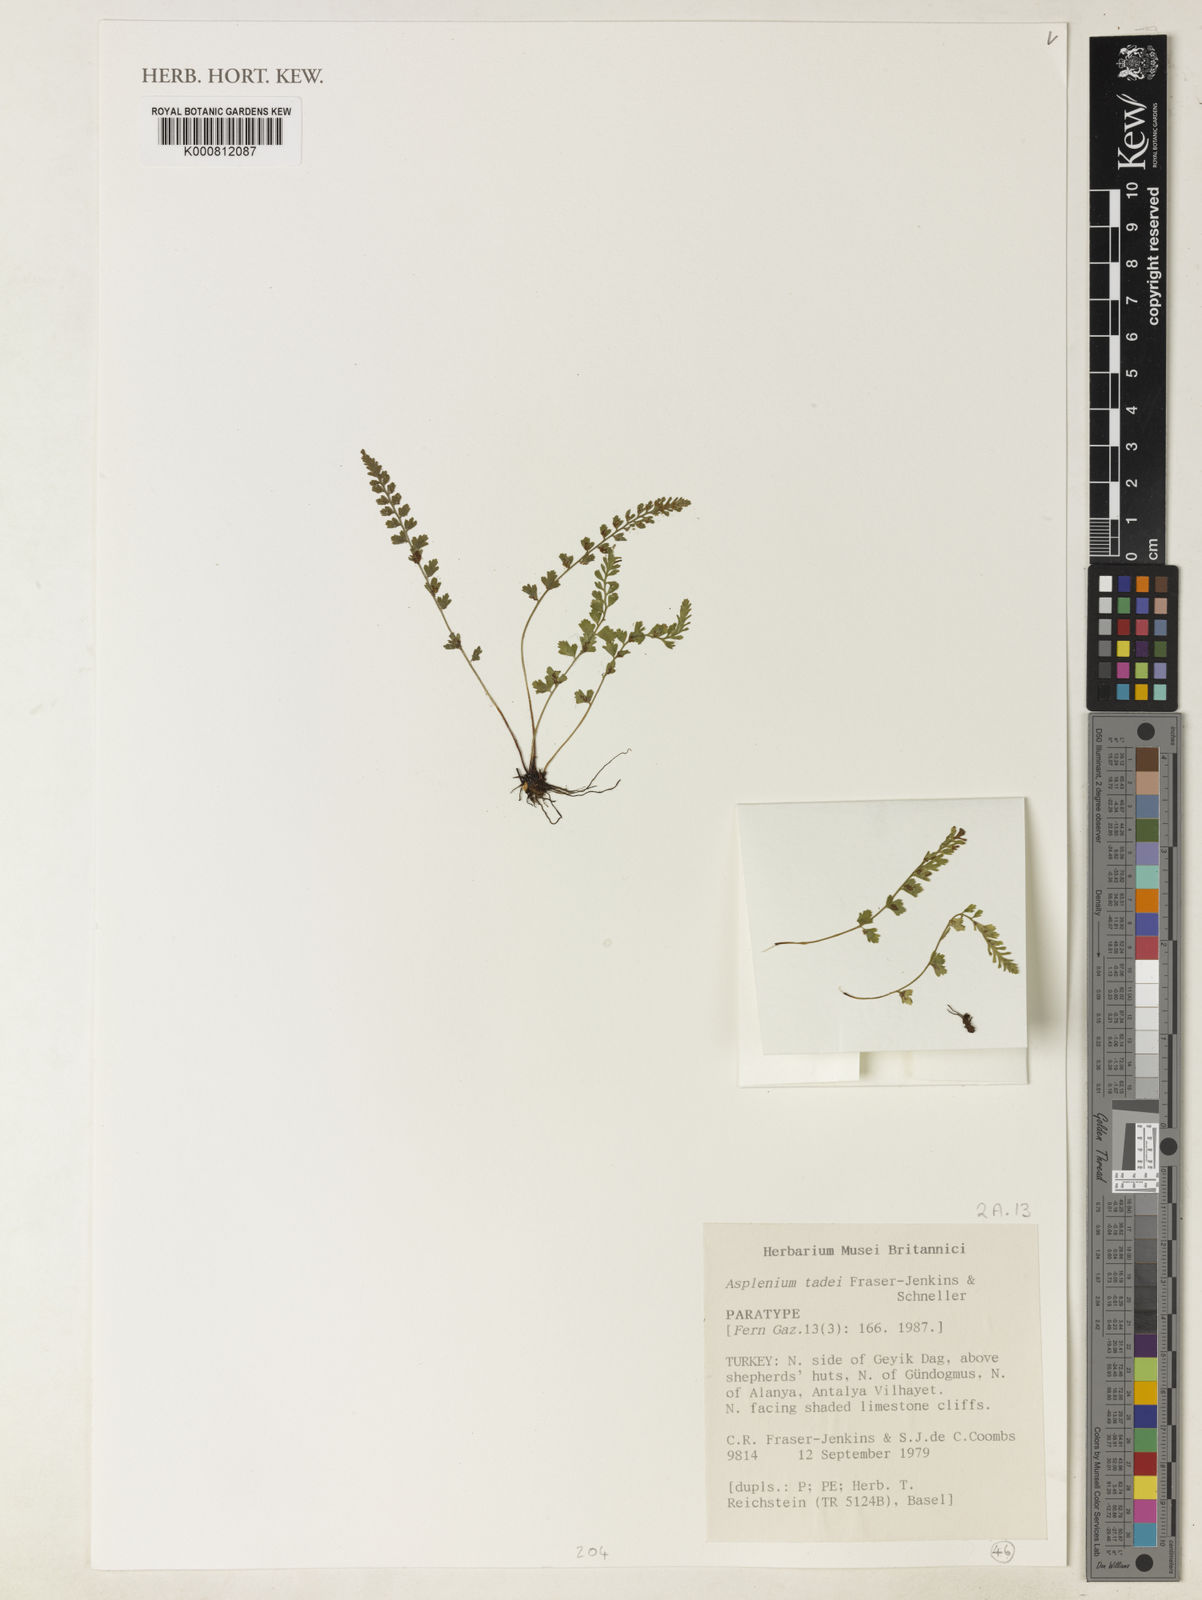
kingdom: Plantae
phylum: Tracheophyta
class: Polypodiopsida
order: Polypodiales
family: Aspleniaceae
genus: Asplenium
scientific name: Asplenium tadei
